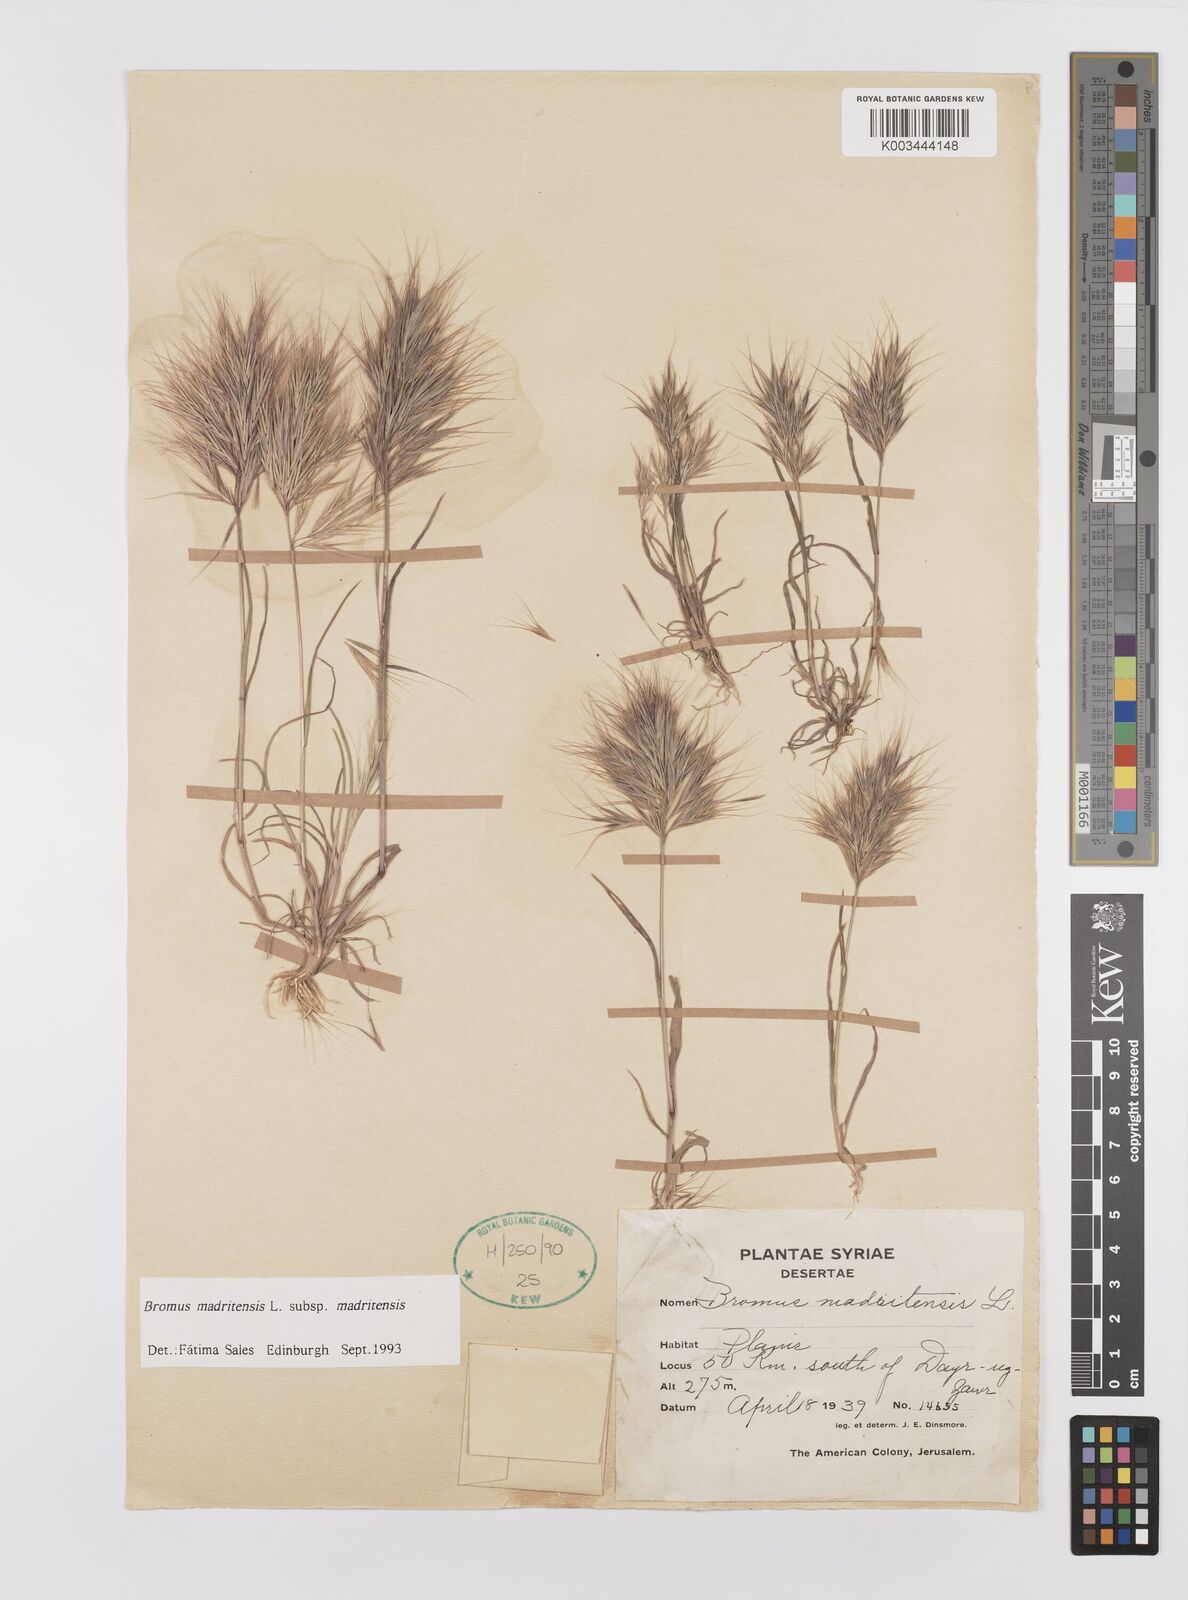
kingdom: Plantae
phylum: Tracheophyta
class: Liliopsida
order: Poales
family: Poaceae
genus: Bromus
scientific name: Bromus madritensis
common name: Compact brome
